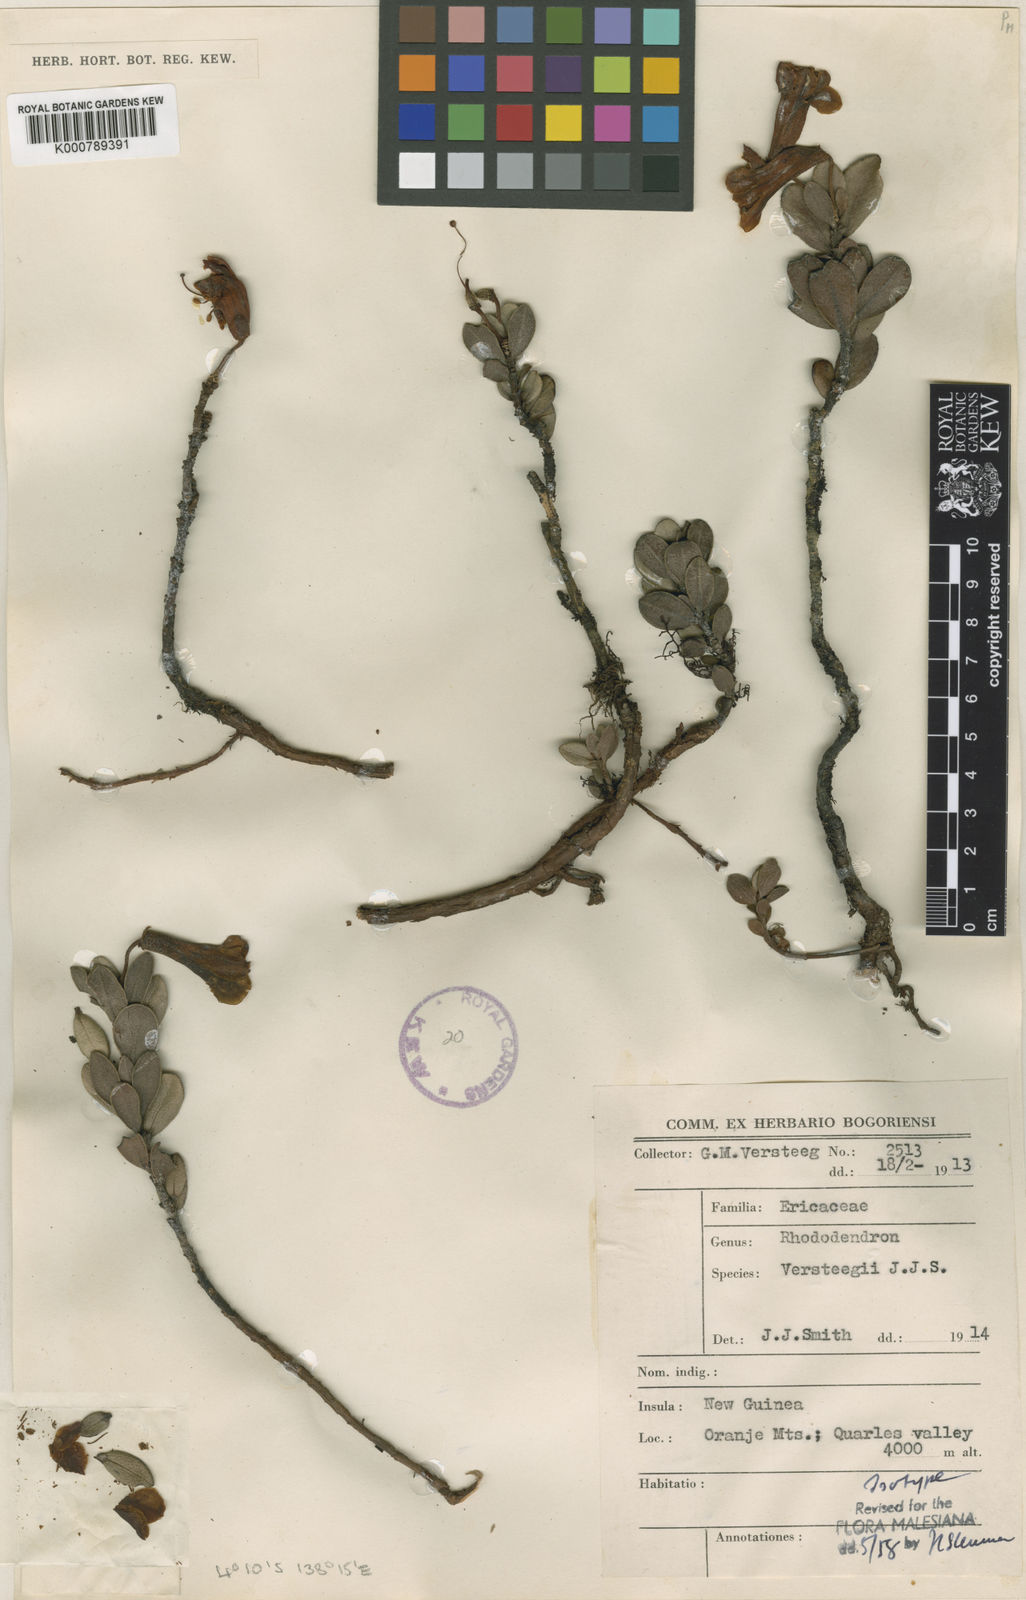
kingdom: Plantae
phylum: Tracheophyta
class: Magnoliopsida
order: Ericales
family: Ericaceae
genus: Rhododendron
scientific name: Rhododendron versteegii
